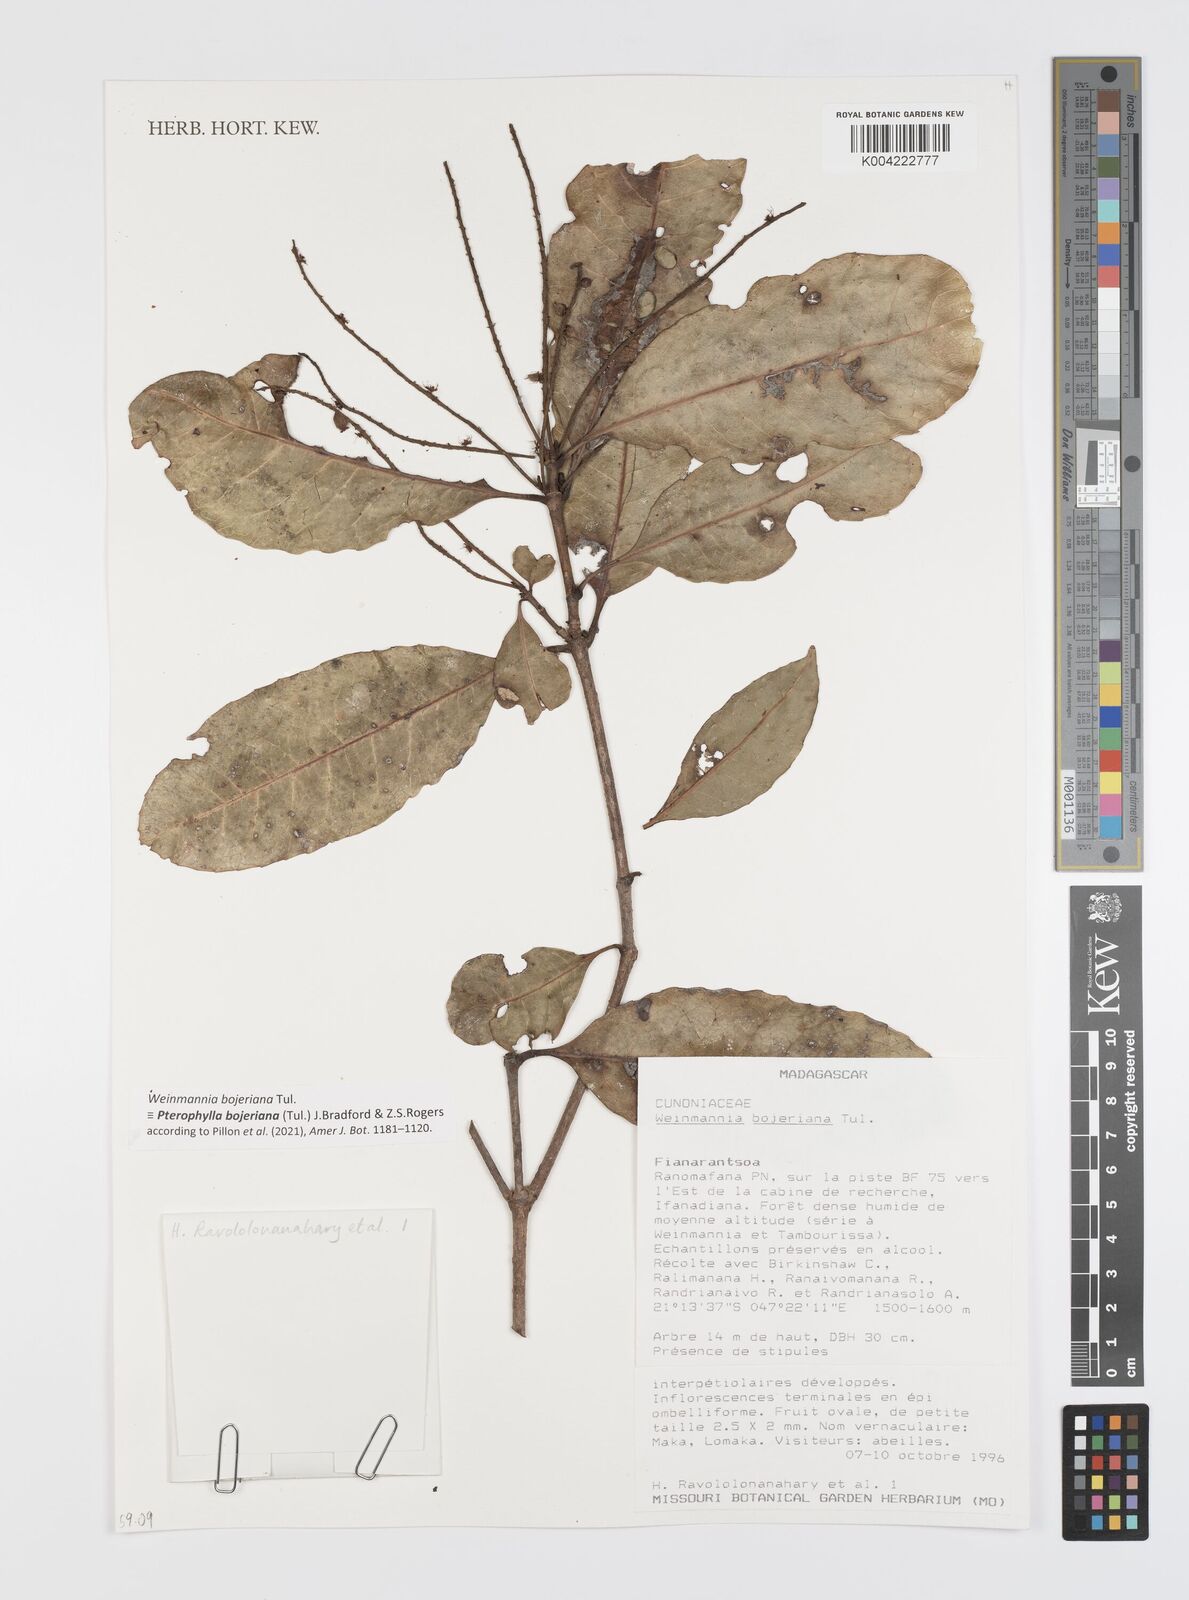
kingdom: Plantae
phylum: Tracheophyta
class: Magnoliopsida
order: Oxalidales
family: Cunoniaceae
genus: Pterophylla
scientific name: Pterophylla
